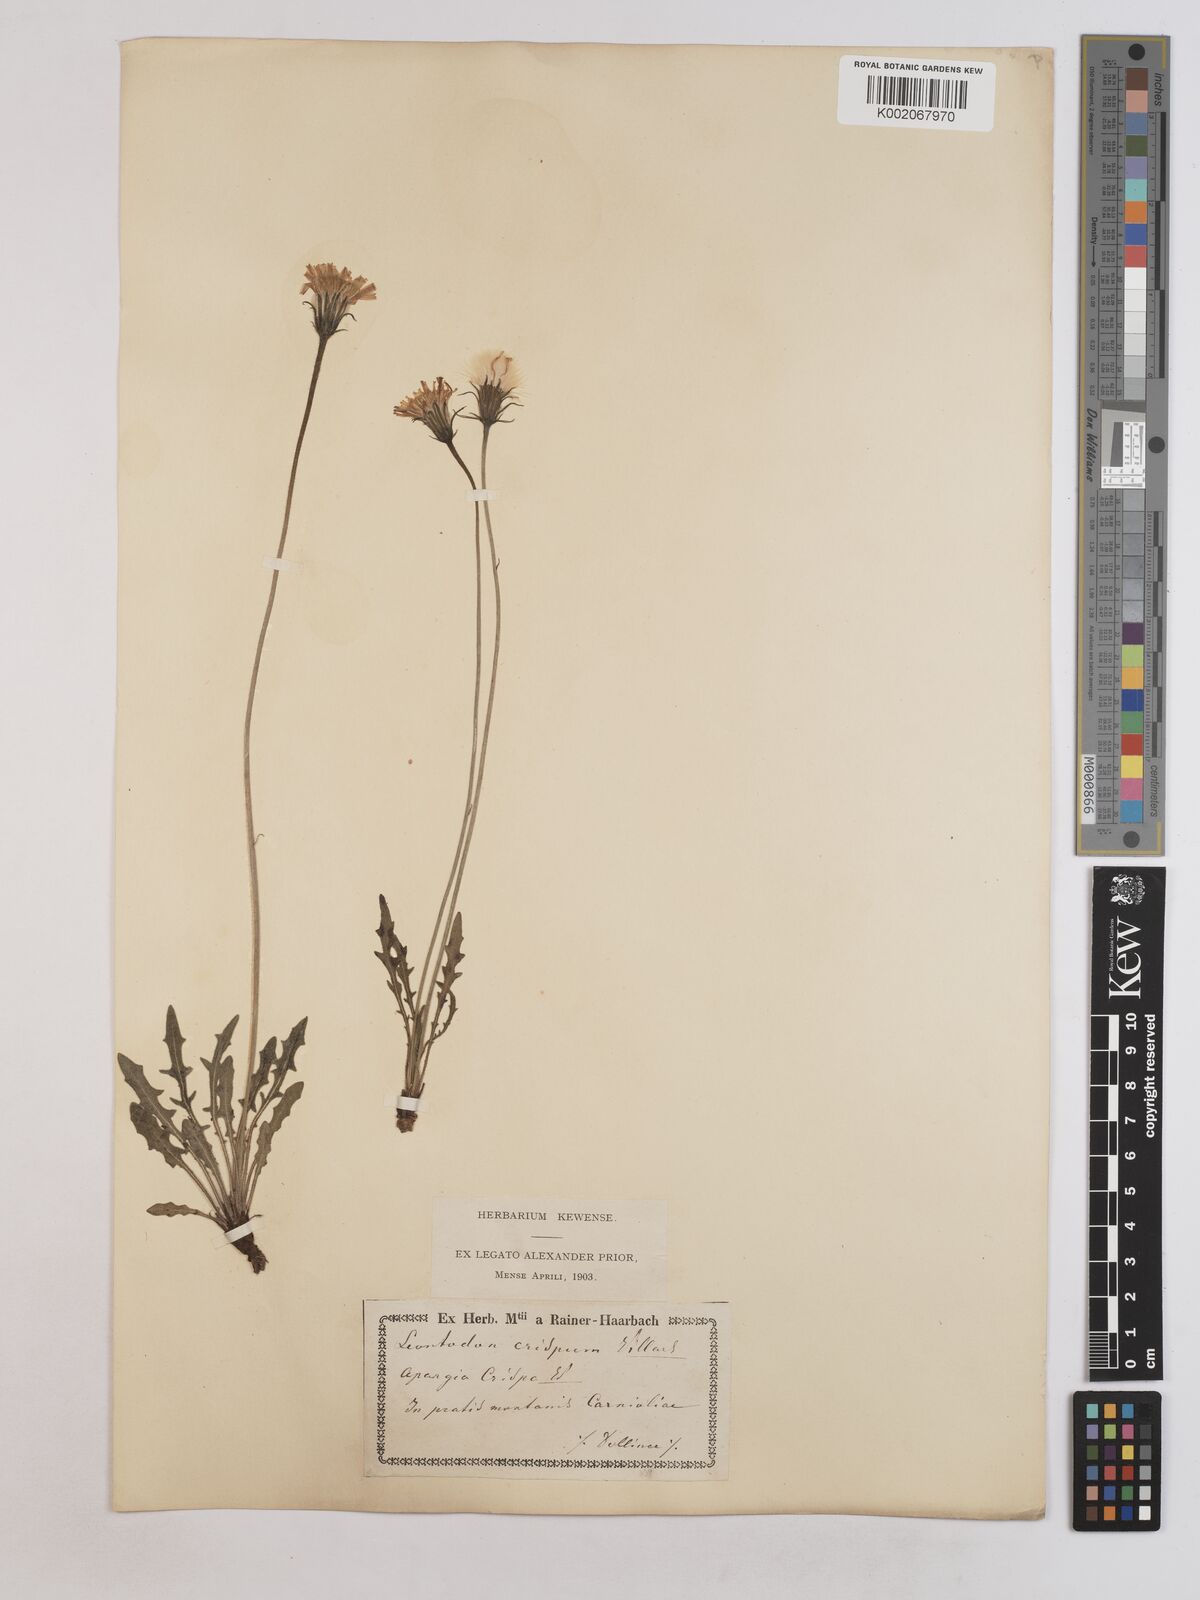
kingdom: Plantae
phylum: Tracheophyta
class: Magnoliopsida
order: Asterales
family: Asteraceae
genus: Leontodon
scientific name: Leontodon crispus
